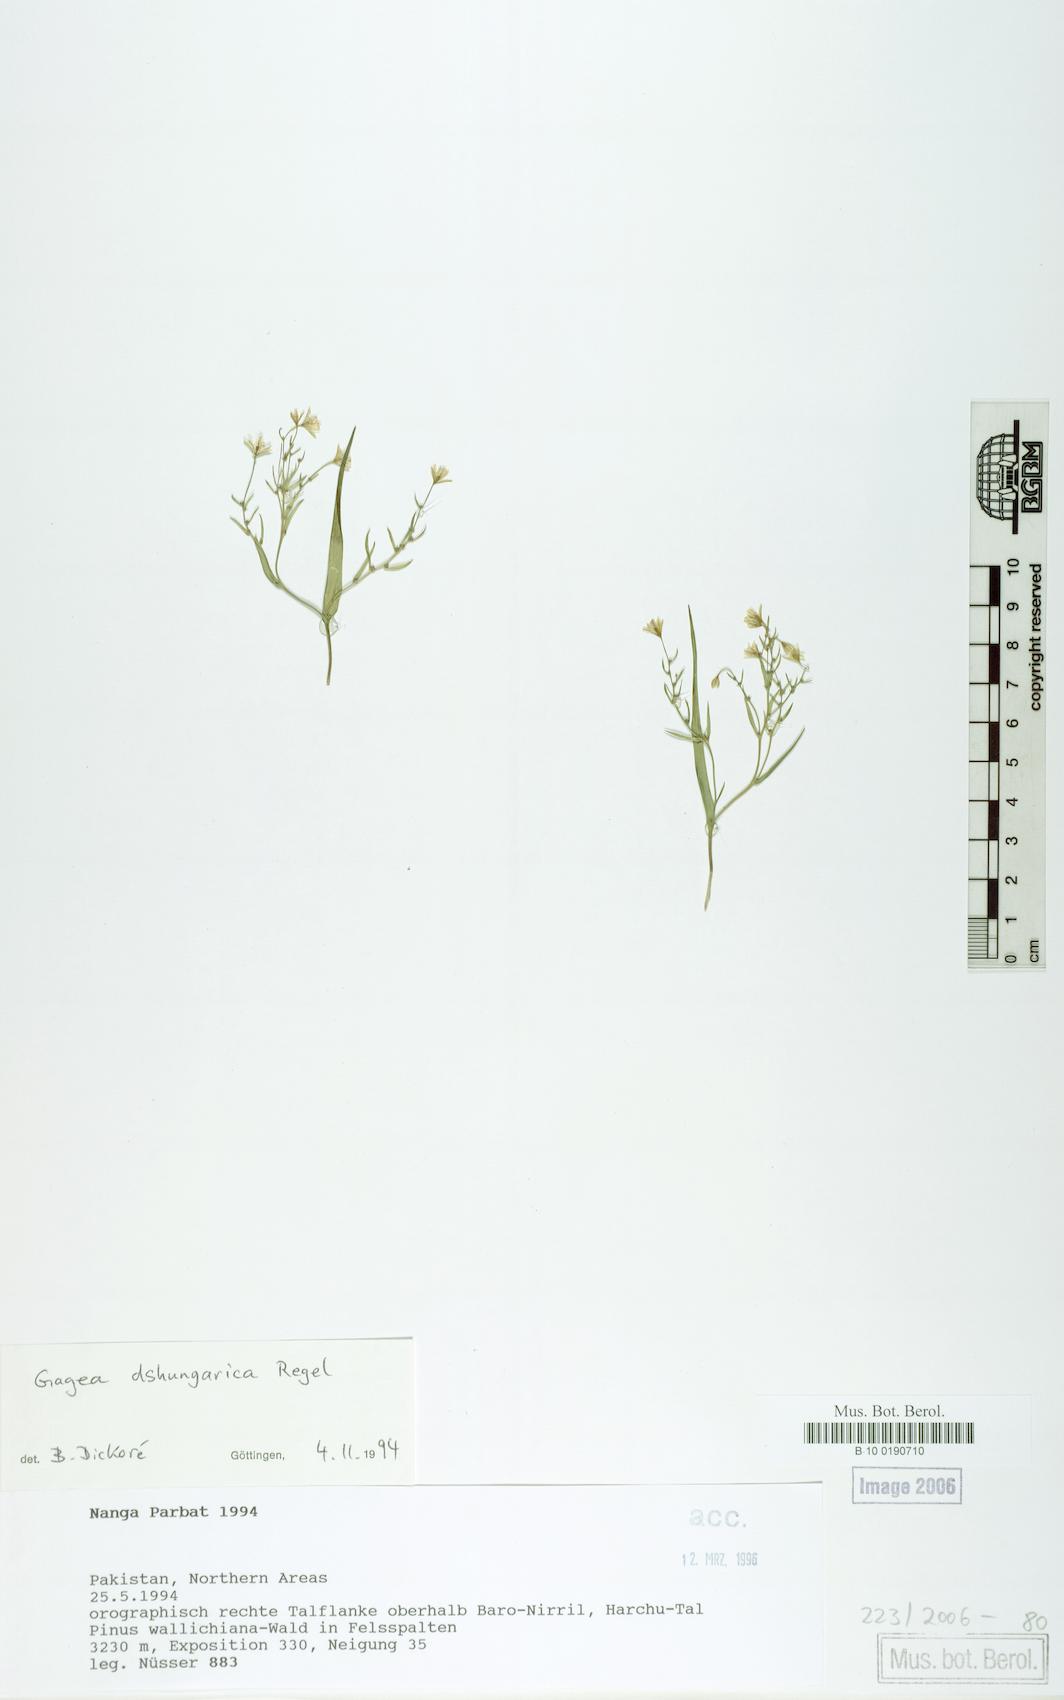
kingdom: Plantae
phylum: Tracheophyta
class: Liliopsida
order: Liliales
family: Liliaceae
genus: Gagea
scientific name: Gagea dschungarica
